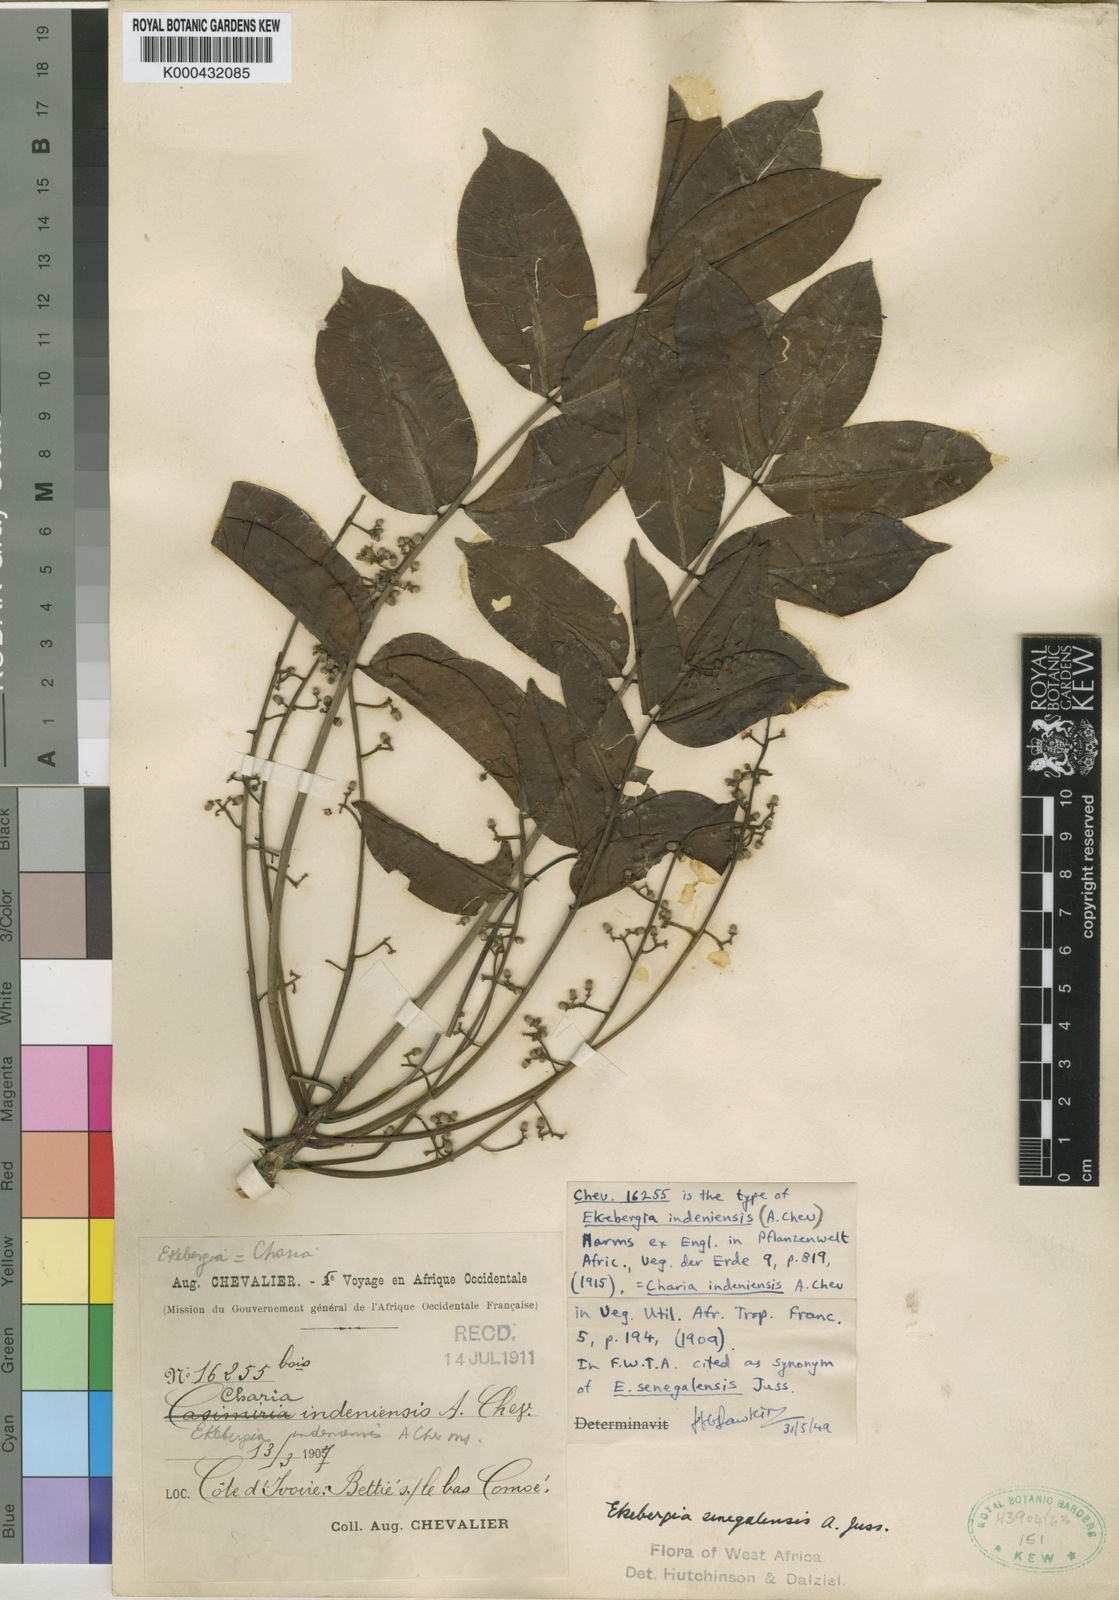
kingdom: Plantae
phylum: Tracheophyta
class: Magnoliopsida
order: Sapindales
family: Meliaceae
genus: Ekebergia
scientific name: Ekebergia capensis
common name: Cape-ash
